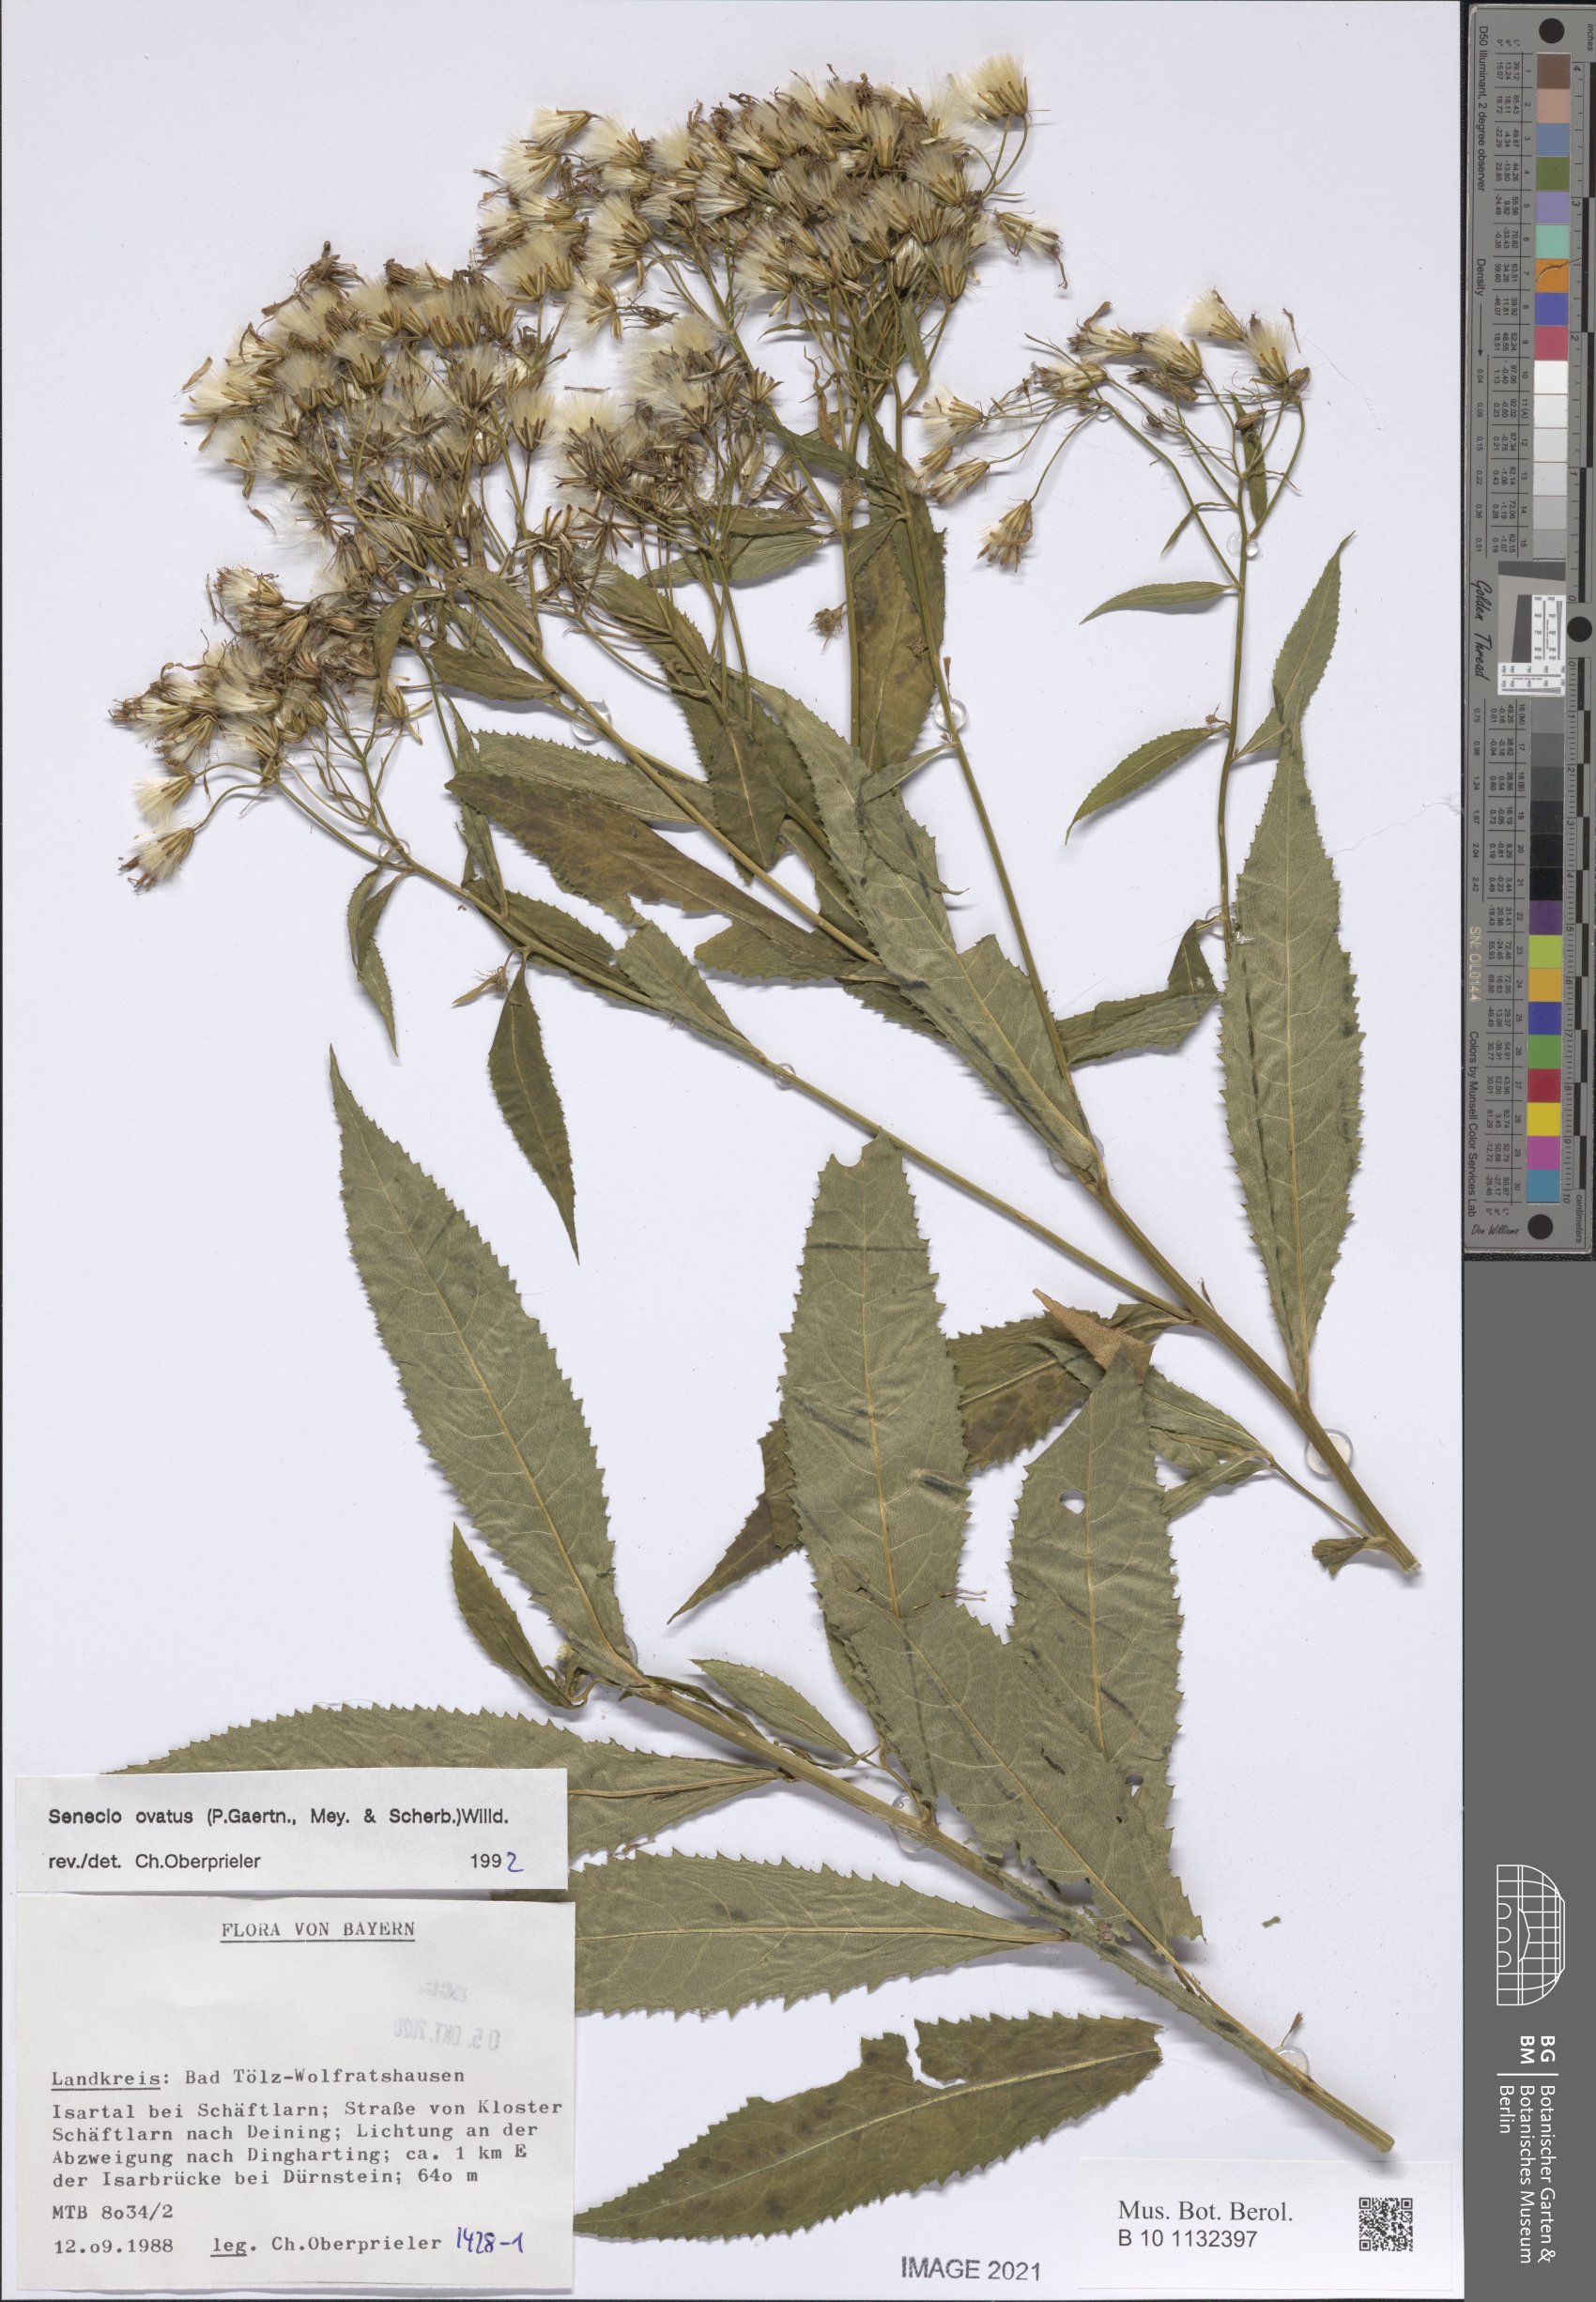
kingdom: Plantae
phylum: Tracheophyta
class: Magnoliopsida
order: Asterales
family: Asteraceae
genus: Senecio
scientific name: Senecio ovatus
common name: Wood ragwort
